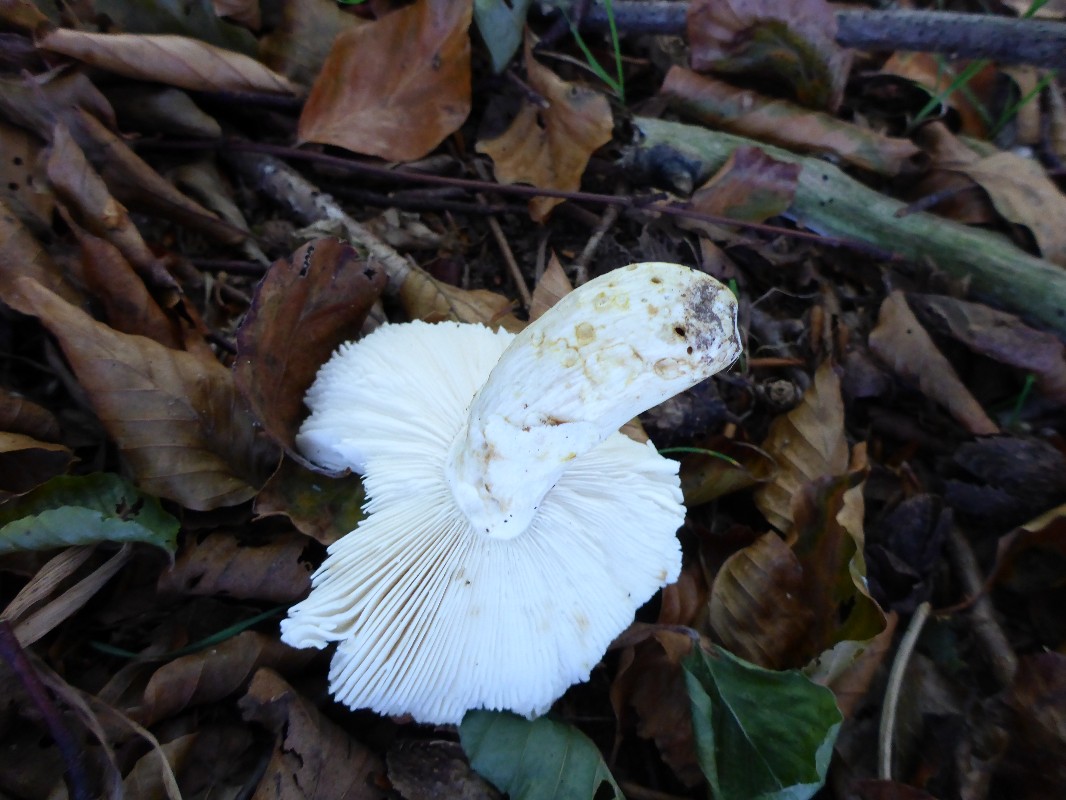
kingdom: Fungi
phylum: Basidiomycota
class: Agaricomycetes
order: Russulales
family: Russulaceae
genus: Russula
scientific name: Russula vesca
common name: spiselig skørhat
